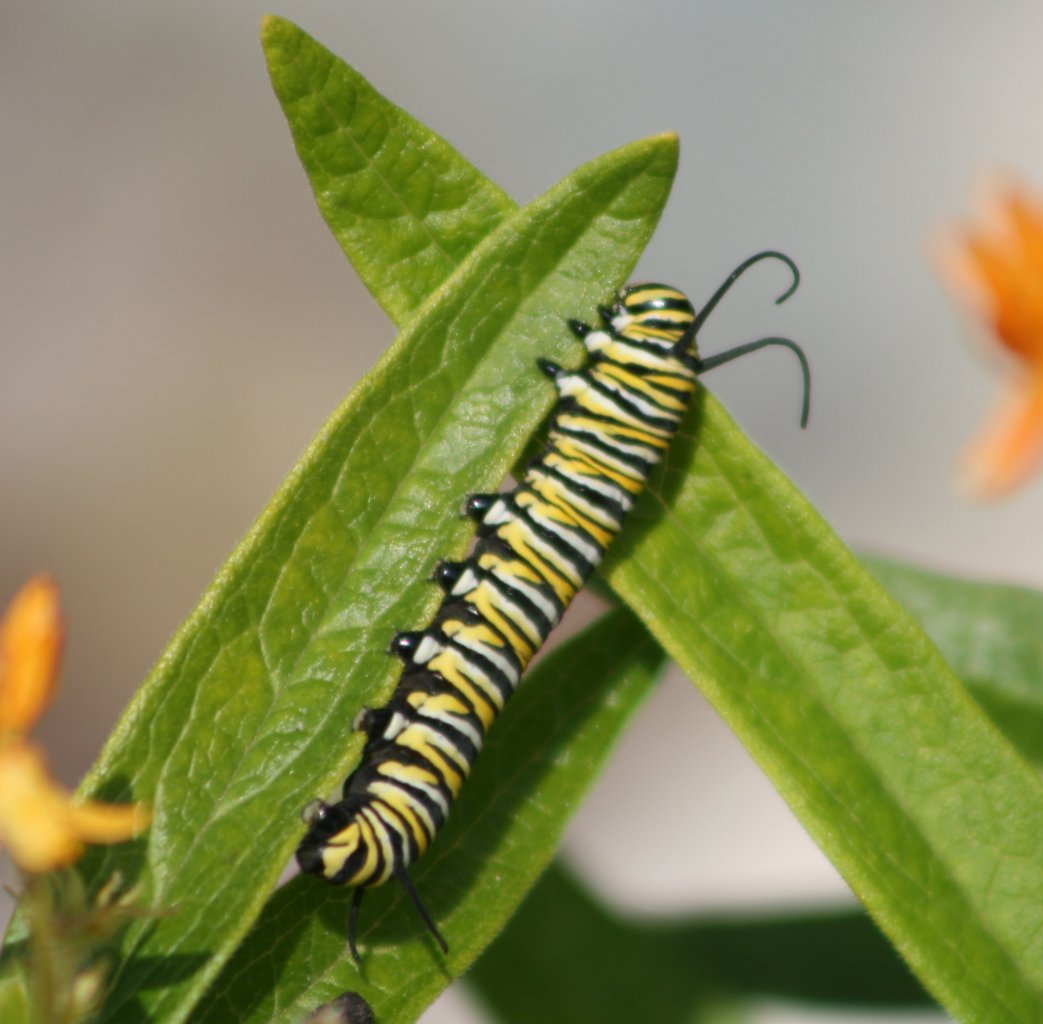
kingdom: Animalia
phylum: Arthropoda
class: Insecta
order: Lepidoptera
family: Nymphalidae
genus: Danaus
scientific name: Danaus plexippus
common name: Monarch
